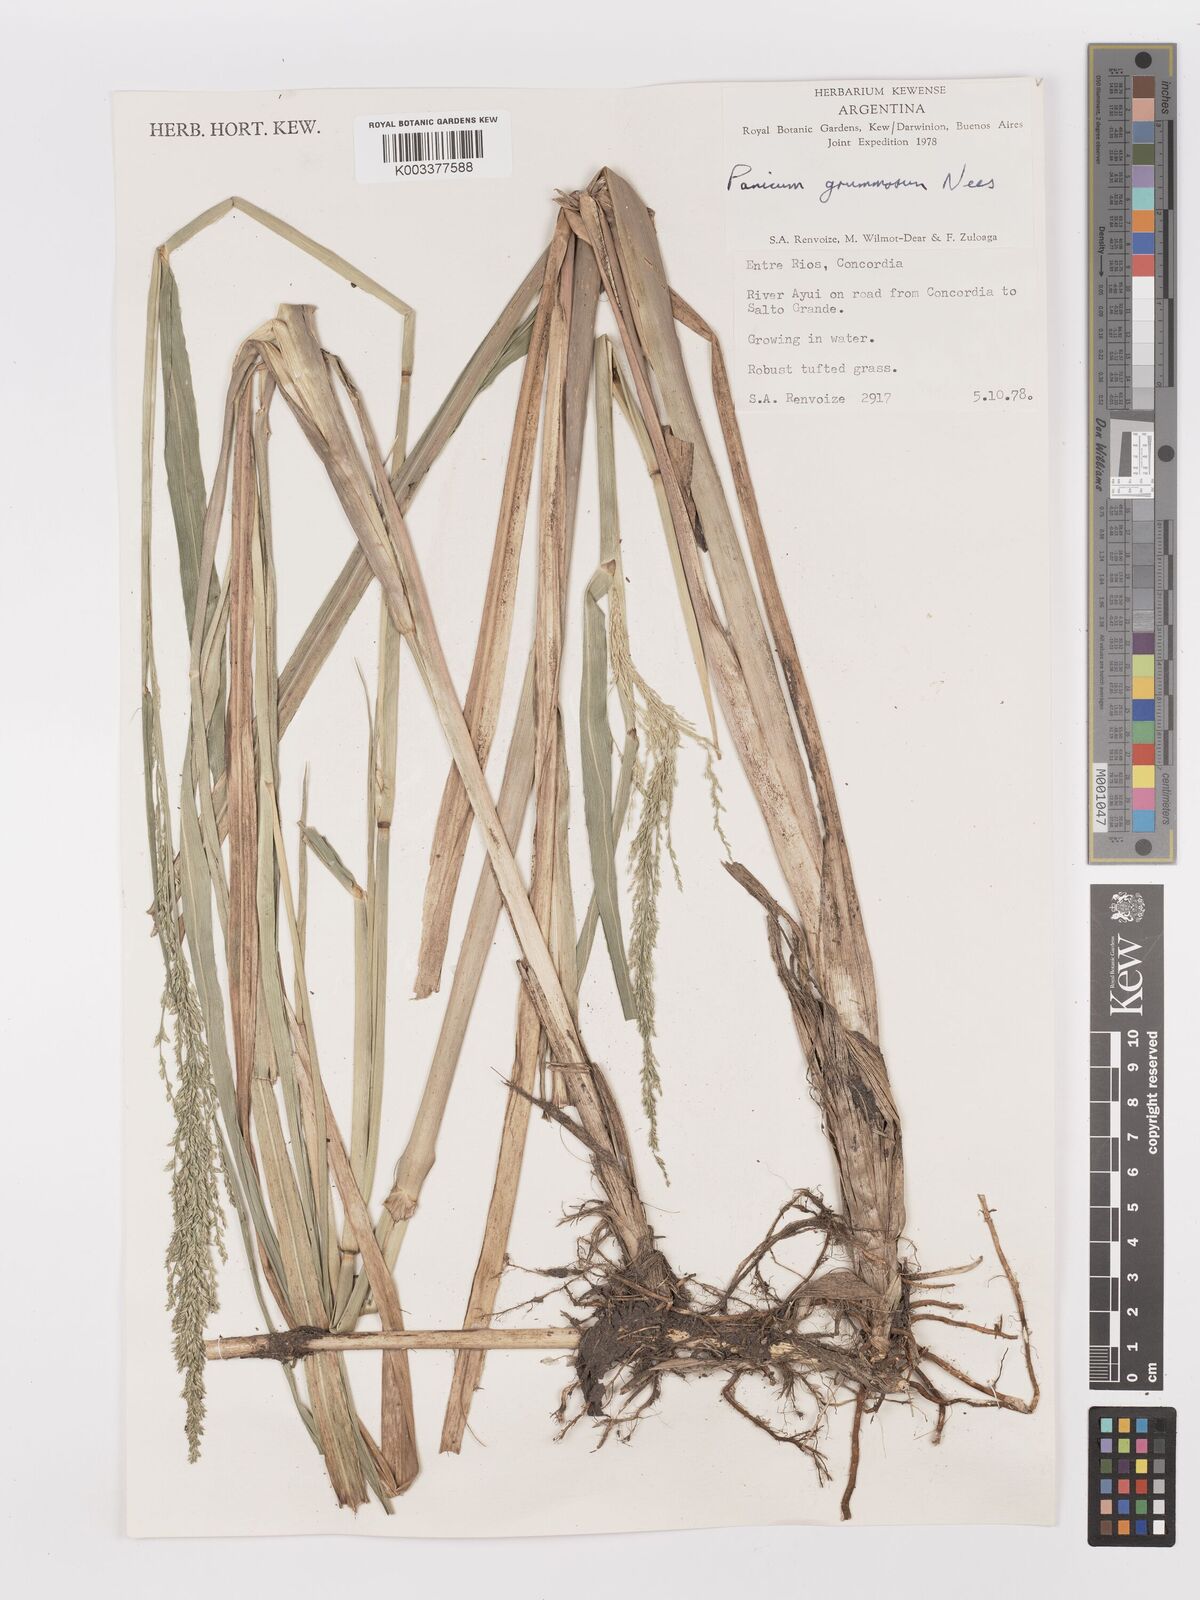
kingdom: Plantae
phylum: Tracheophyta
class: Liliopsida
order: Poales
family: Poaceae
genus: Hymenachne
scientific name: Hymenachne grumosa
